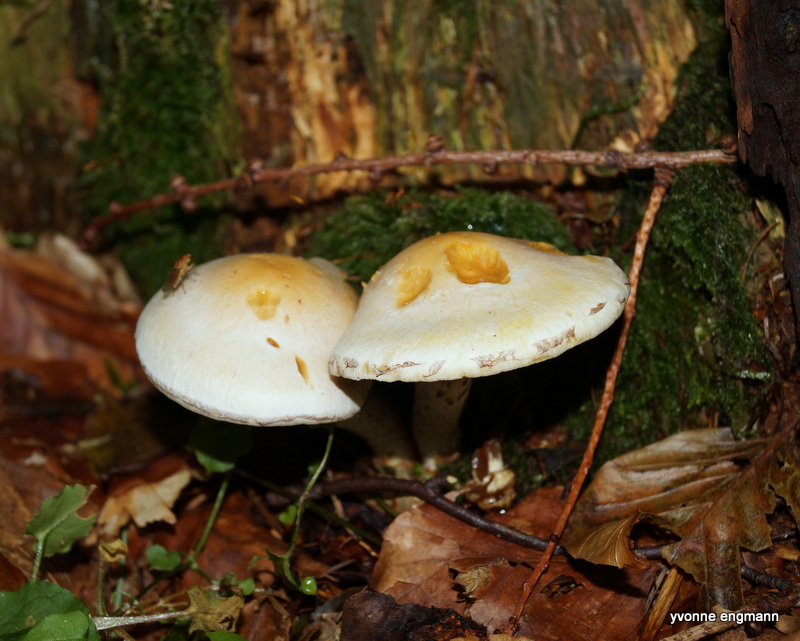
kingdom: Fungi
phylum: Basidiomycota
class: Agaricomycetes
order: Agaricales
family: Strophariaceae
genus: Hypholoma
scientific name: Hypholoma radicosum
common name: pælerods-svovlhat
